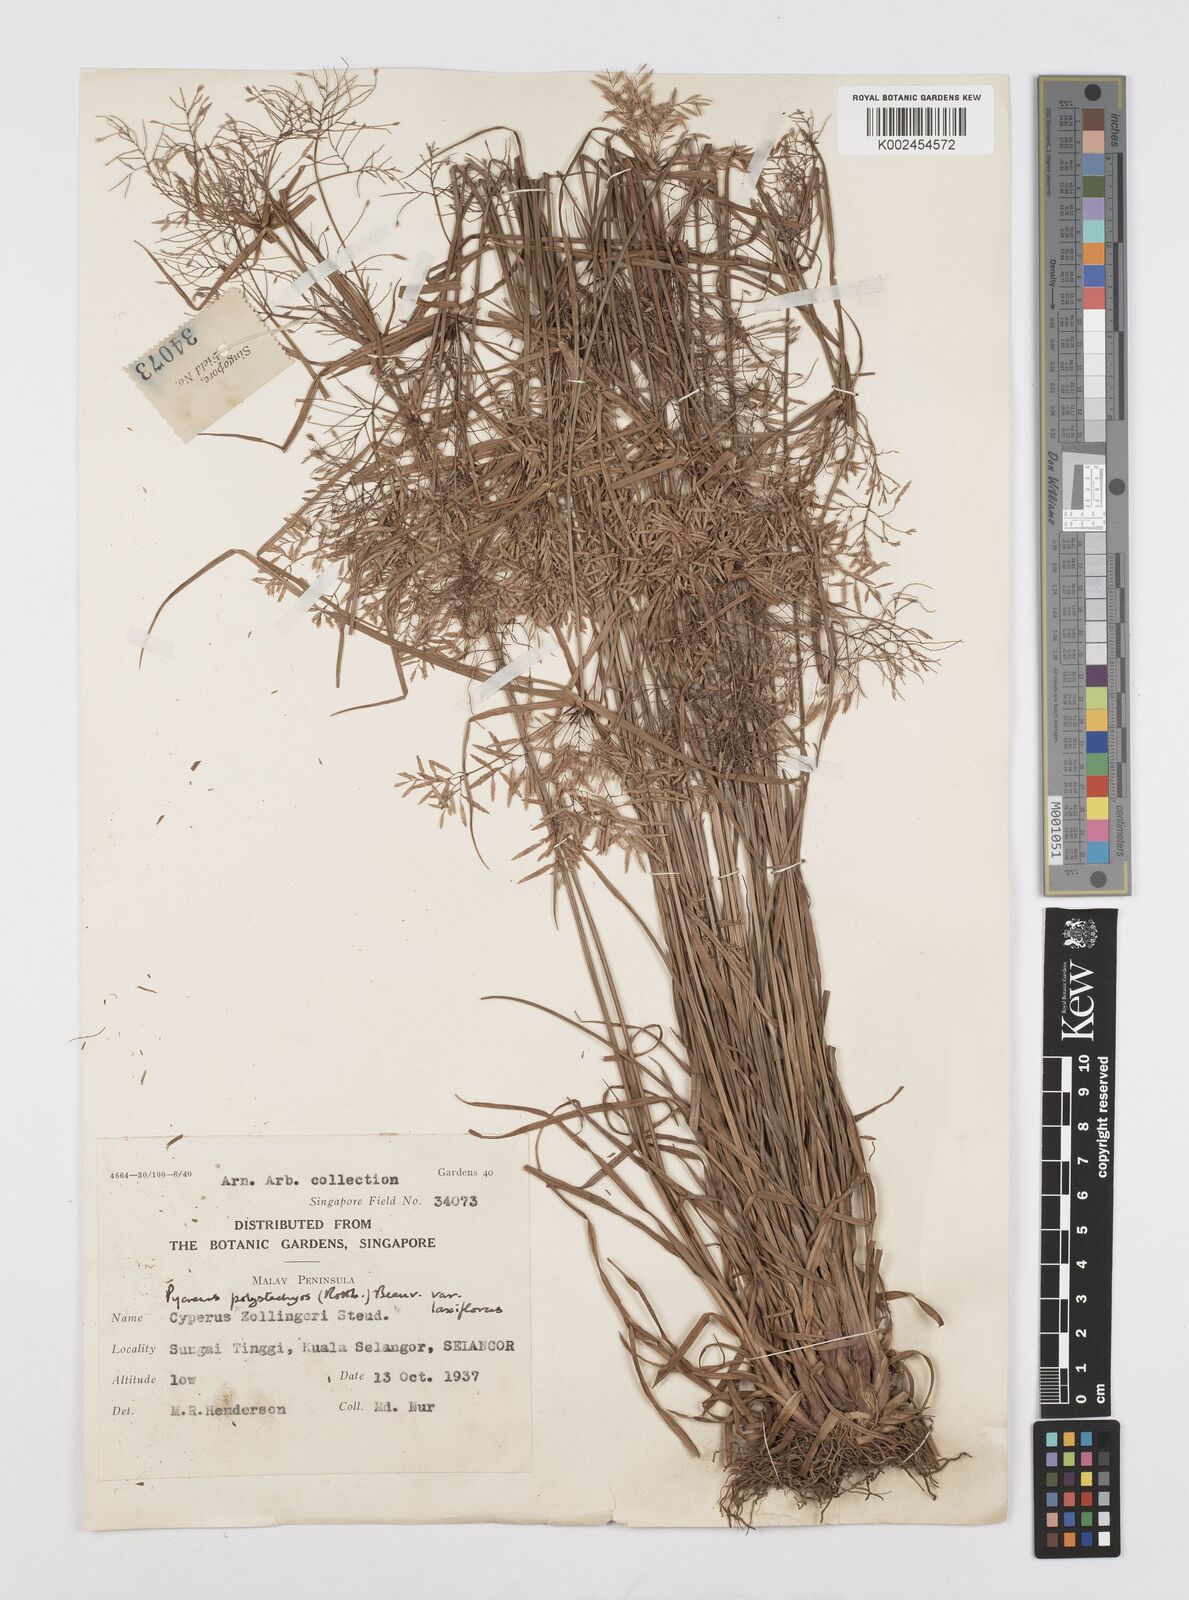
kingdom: Plantae
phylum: Tracheophyta
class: Liliopsida
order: Poales
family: Cyperaceae
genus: Cyperus
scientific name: Cyperus polystachyos
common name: Bunchy flat sedge
